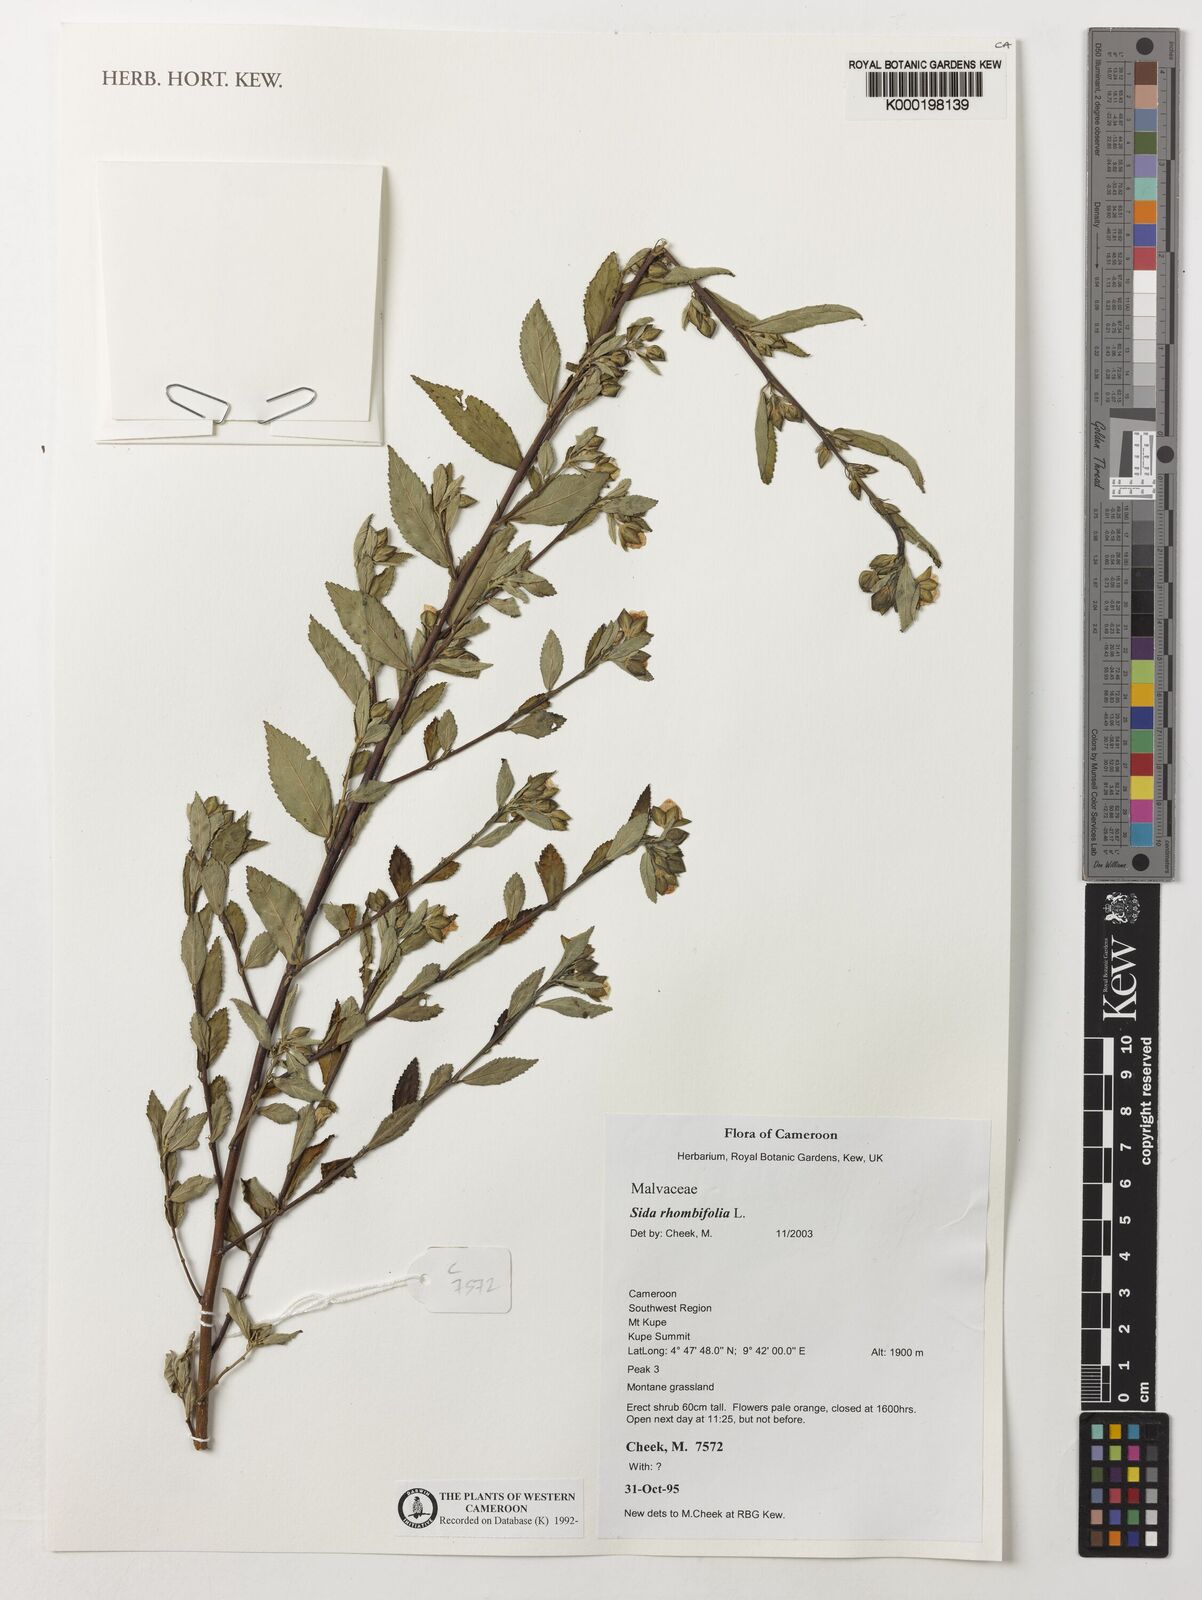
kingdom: Plantae
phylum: Tracheophyta
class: Magnoliopsida
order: Malvales
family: Malvaceae
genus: Sida
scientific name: Sida rhombifolia
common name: Queensland-hemp
